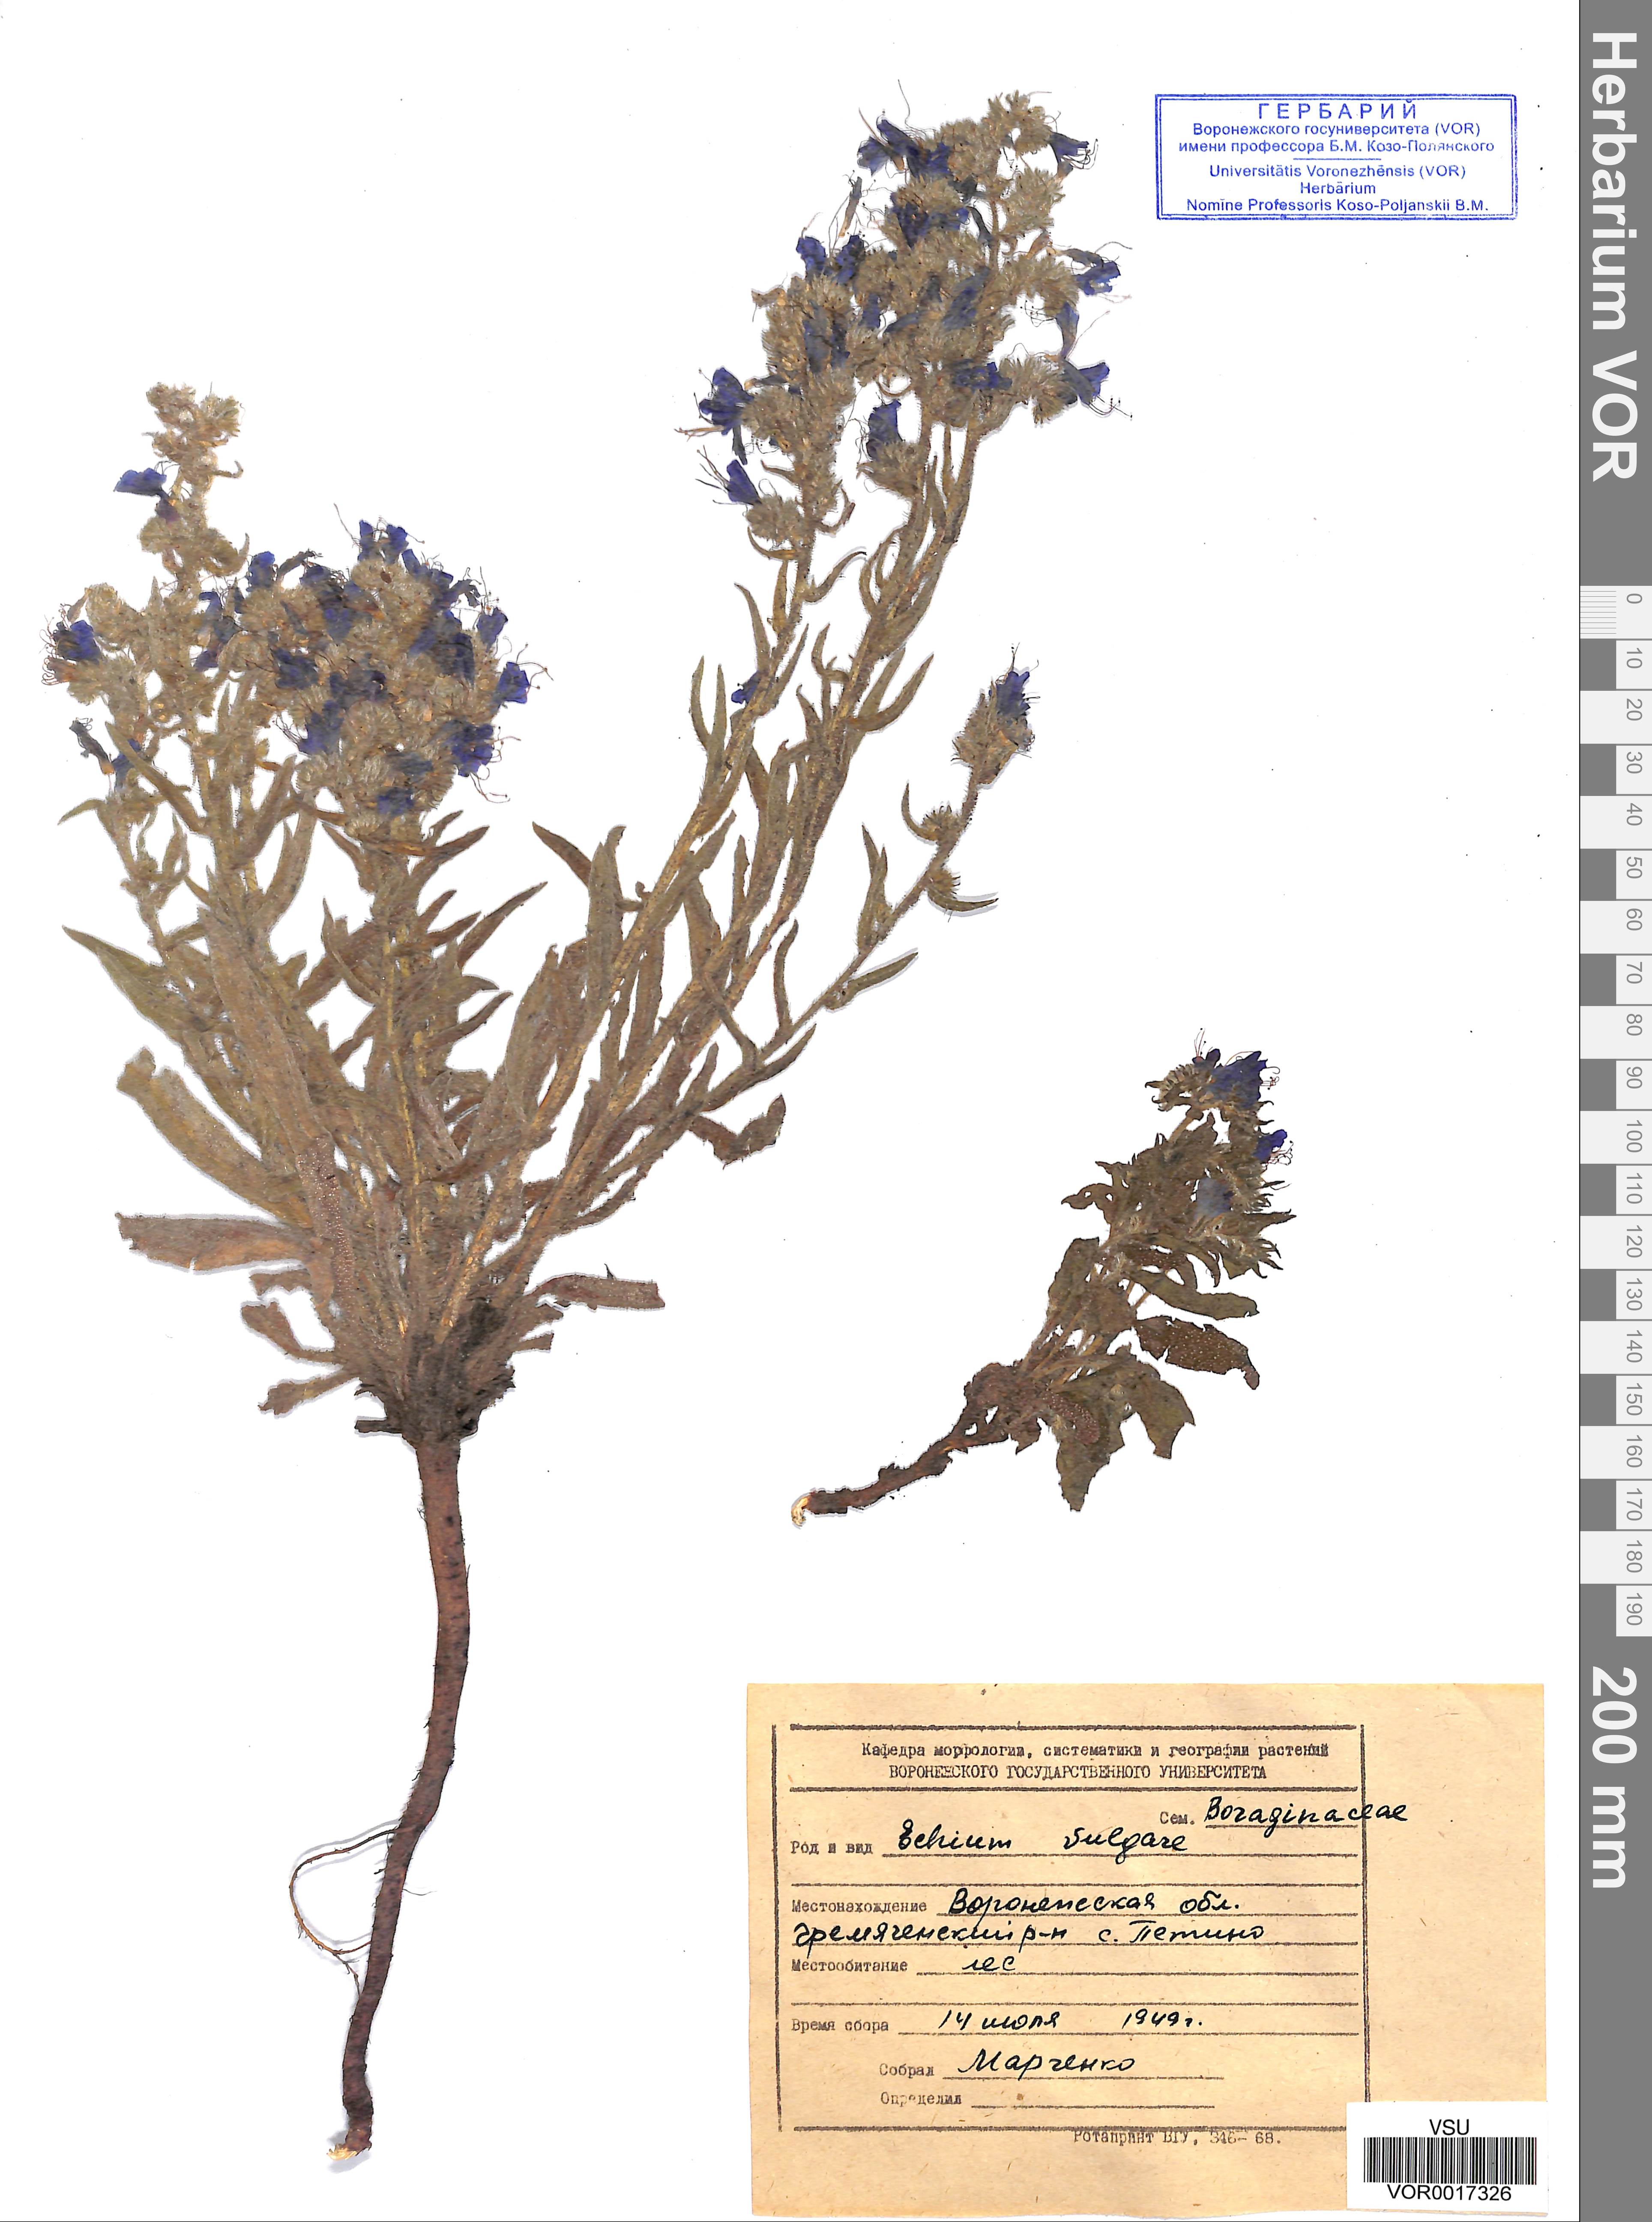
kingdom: Plantae
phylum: Tracheophyta
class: Magnoliopsida
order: Boraginales
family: Boraginaceae
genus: Echium
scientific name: Echium vulgare
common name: Common viper's bugloss
